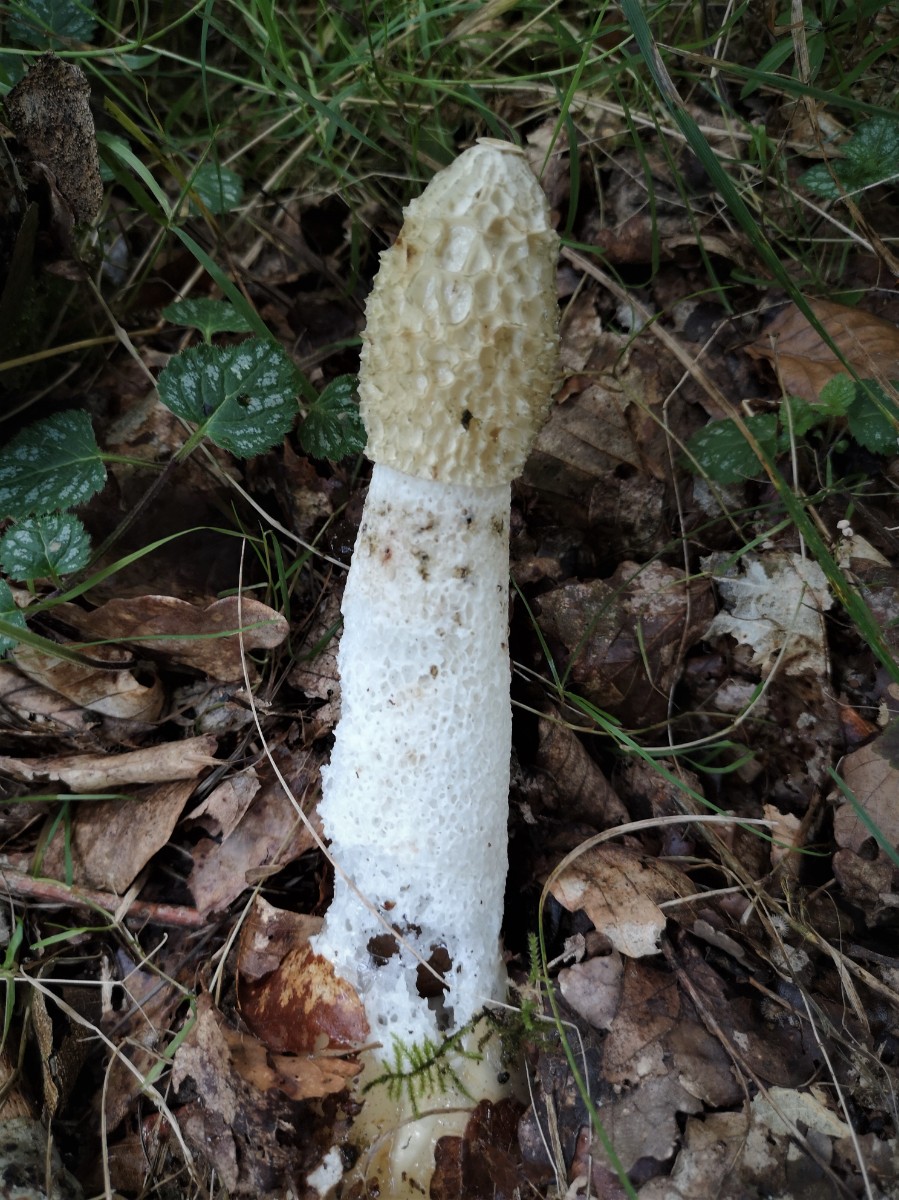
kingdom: Fungi
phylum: Basidiomycota
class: Agaricomycetes
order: Phallales
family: Phallaceae
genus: Phallus
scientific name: Phallus impudicus
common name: almindelig stinksvamp
